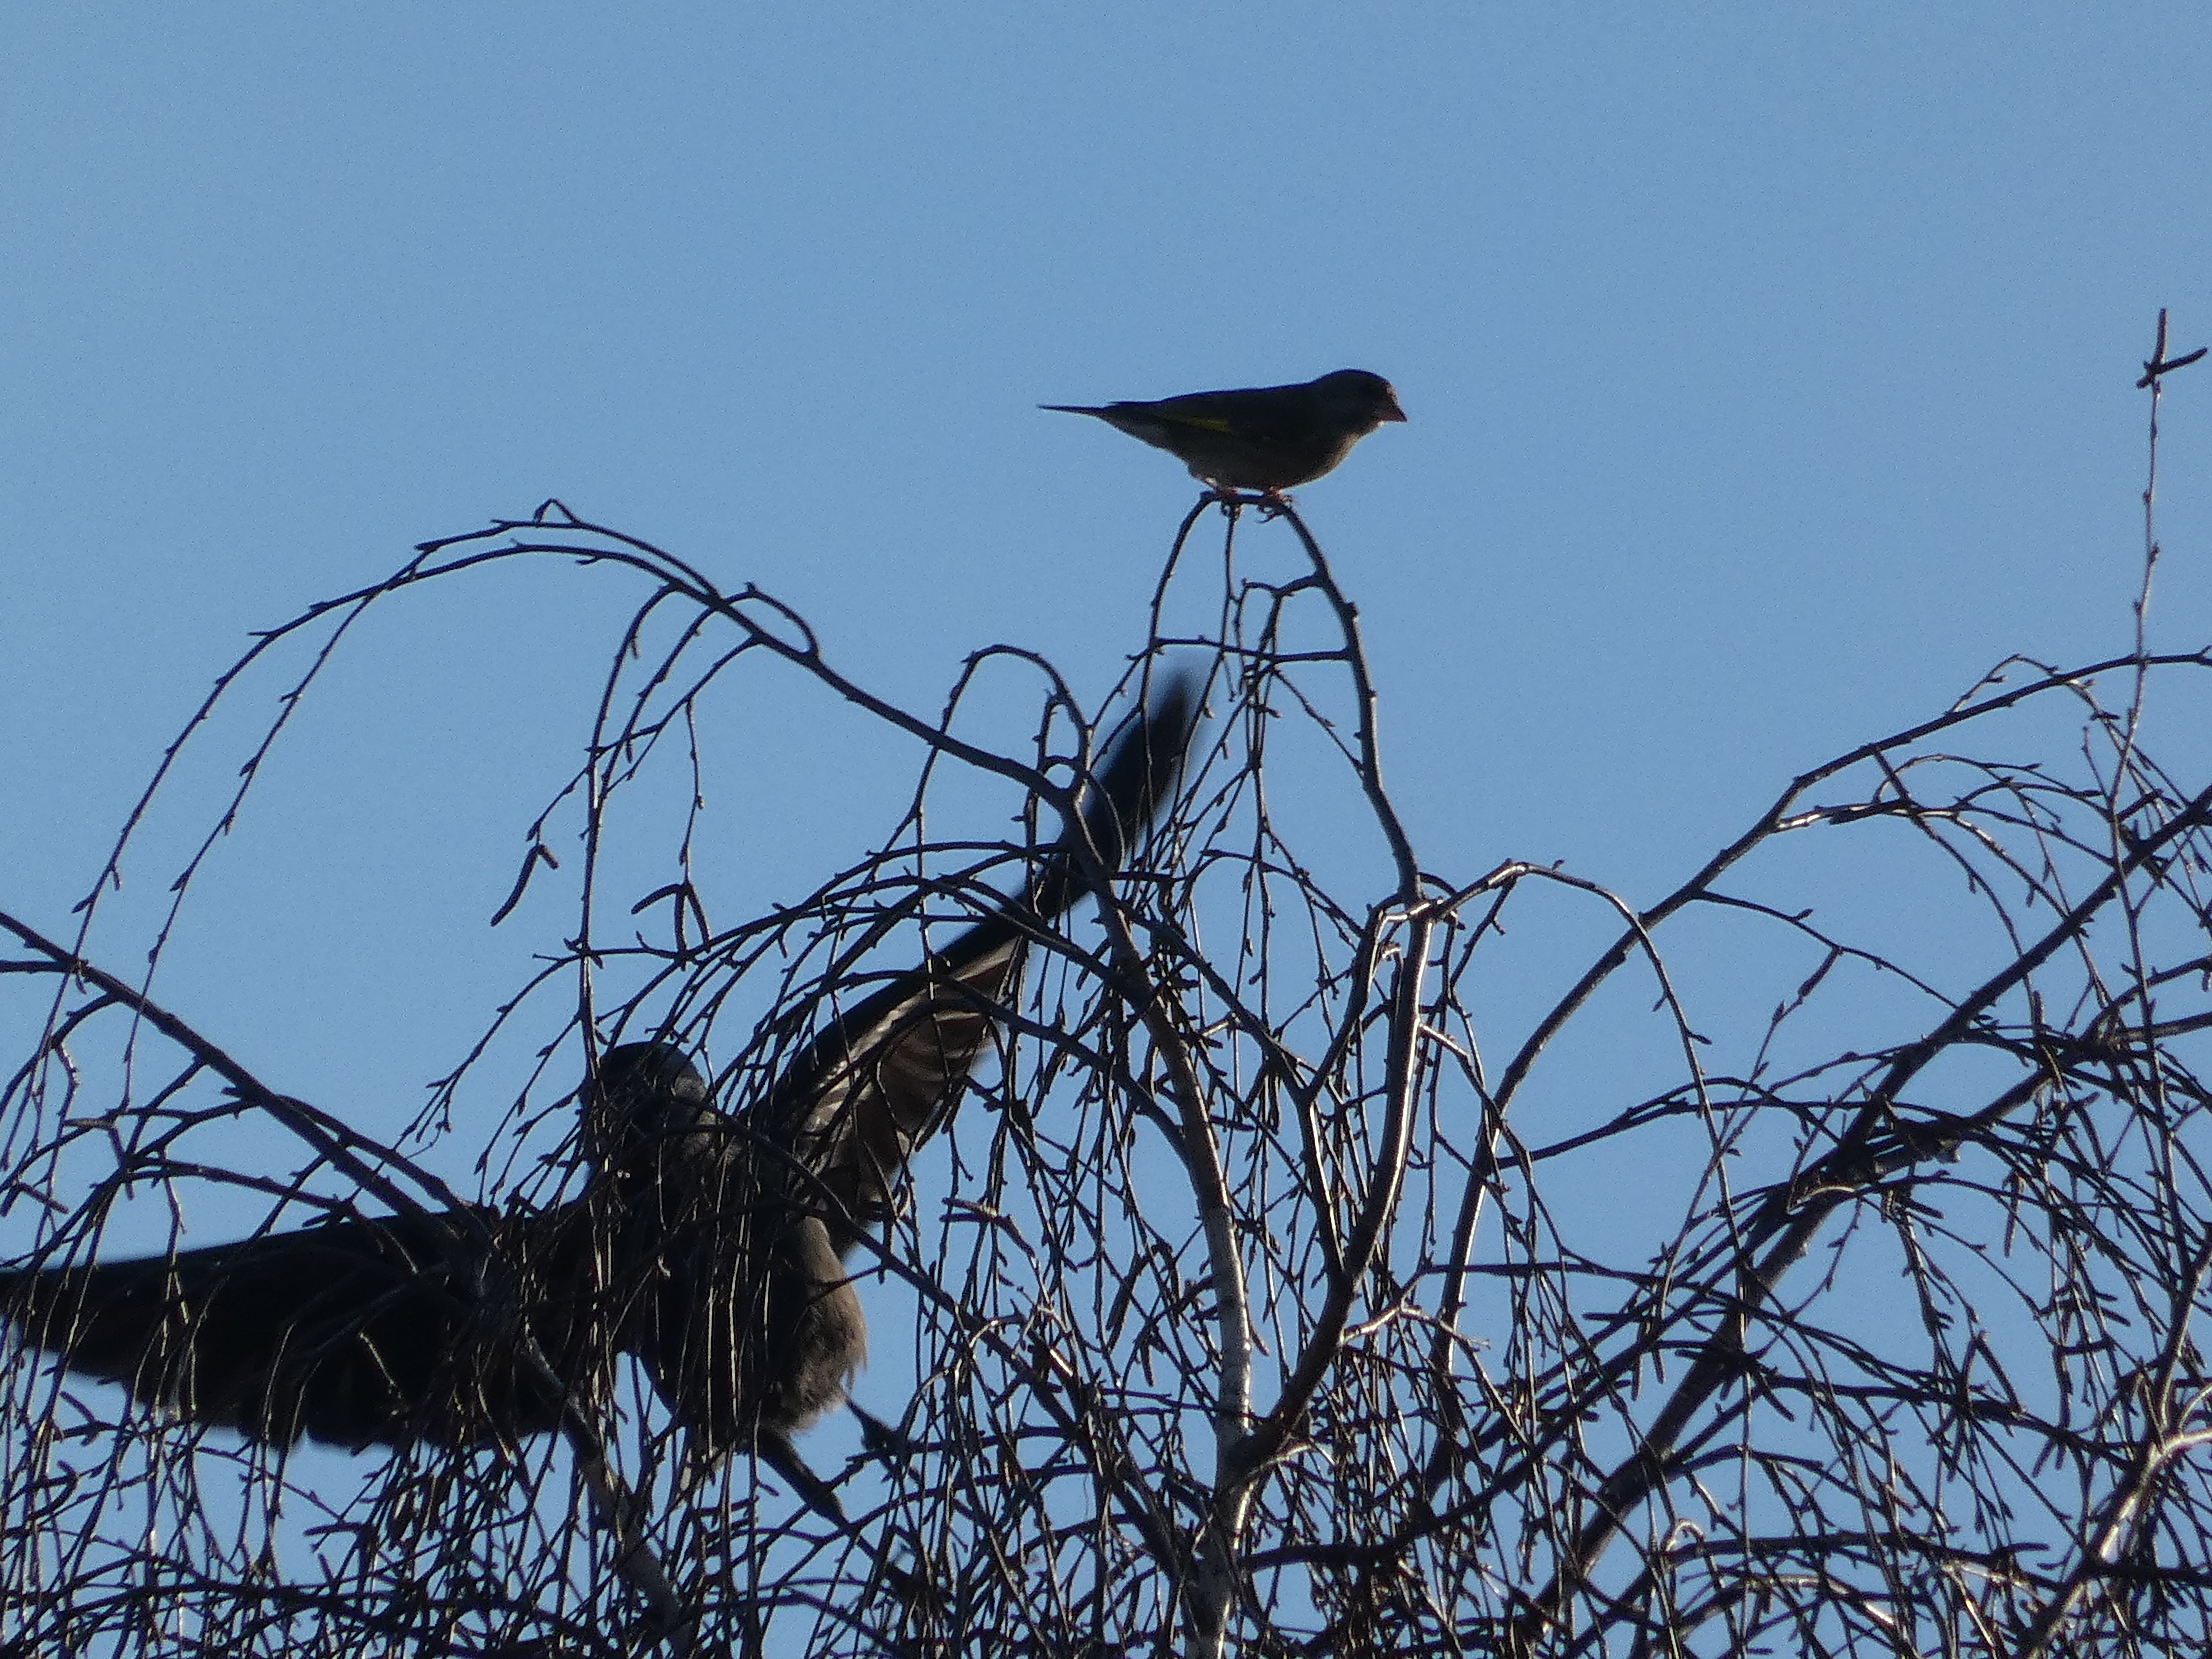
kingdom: Plantae
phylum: Tracheophyta
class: Liliopsida
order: Poales
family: Poaceae
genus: Chloris
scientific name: Chloris chloris
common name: Grønirisk
